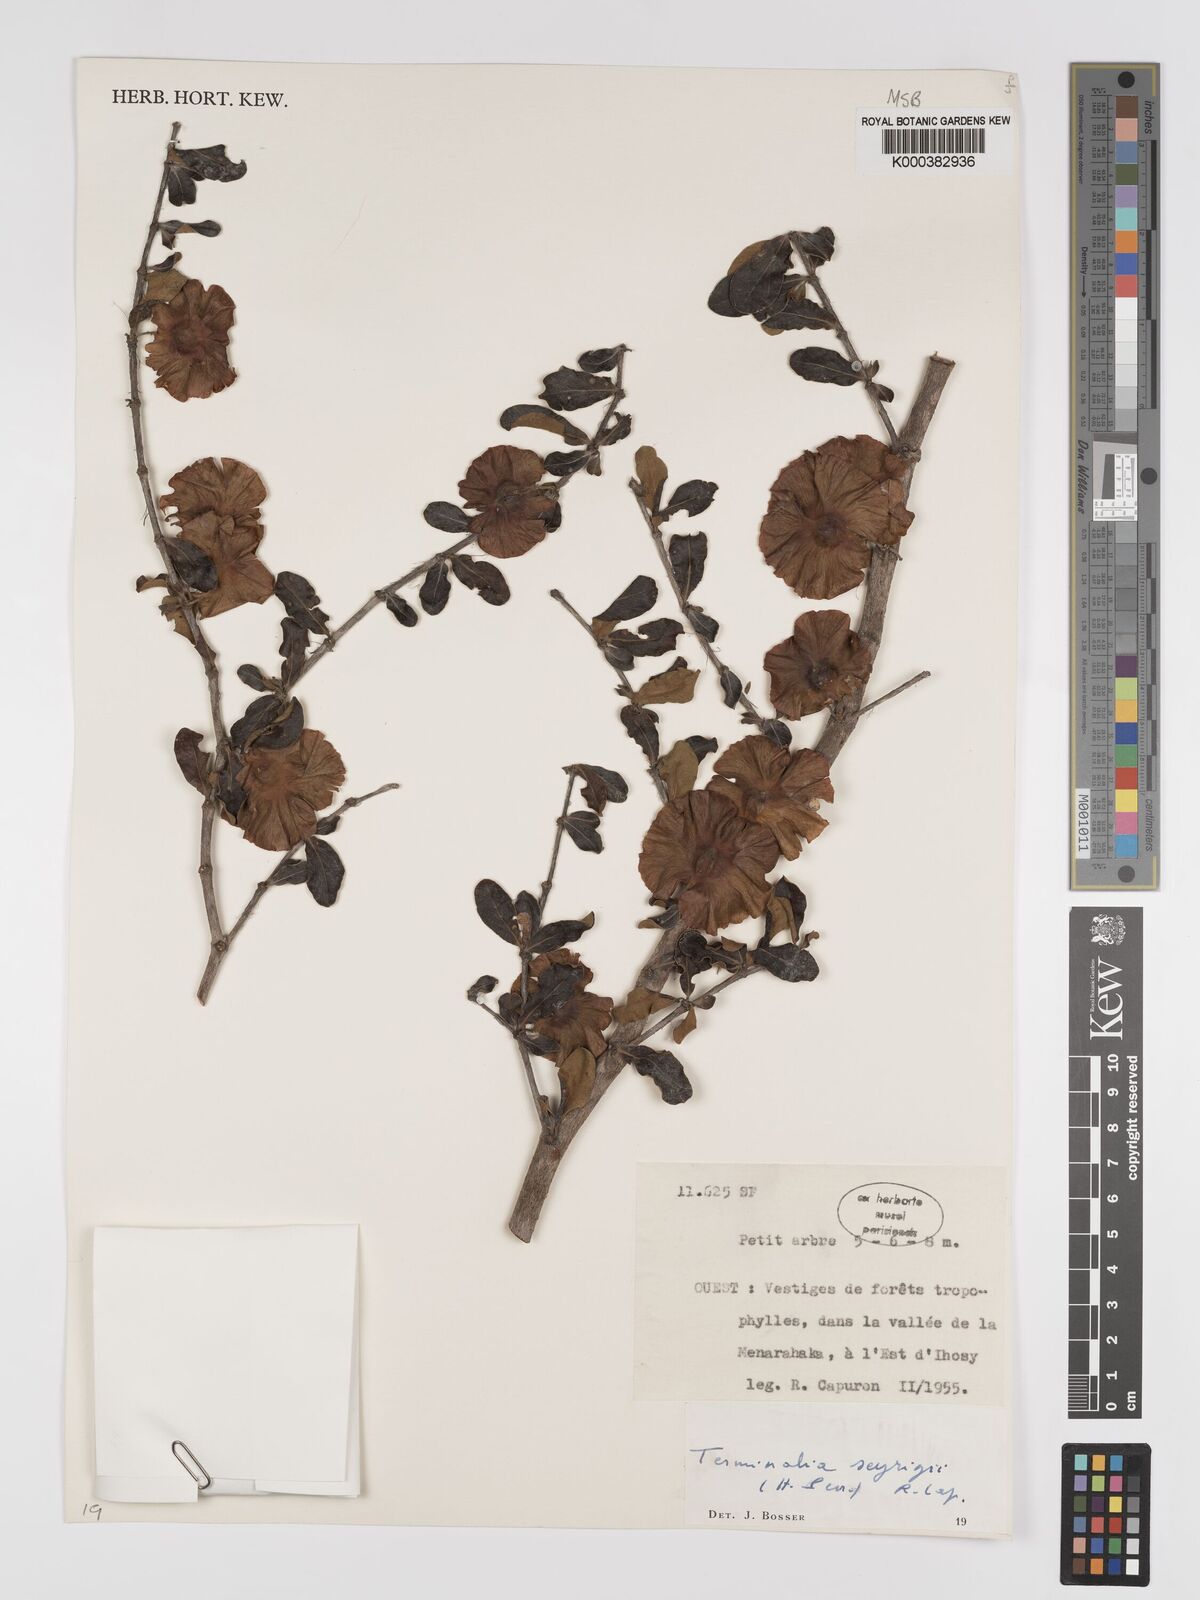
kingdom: Plantae
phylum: Tracheophyta
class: Magnoliopsida
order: Myrtales
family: Combretaceae
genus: Terminalia
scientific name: Terminalia seyrigii
